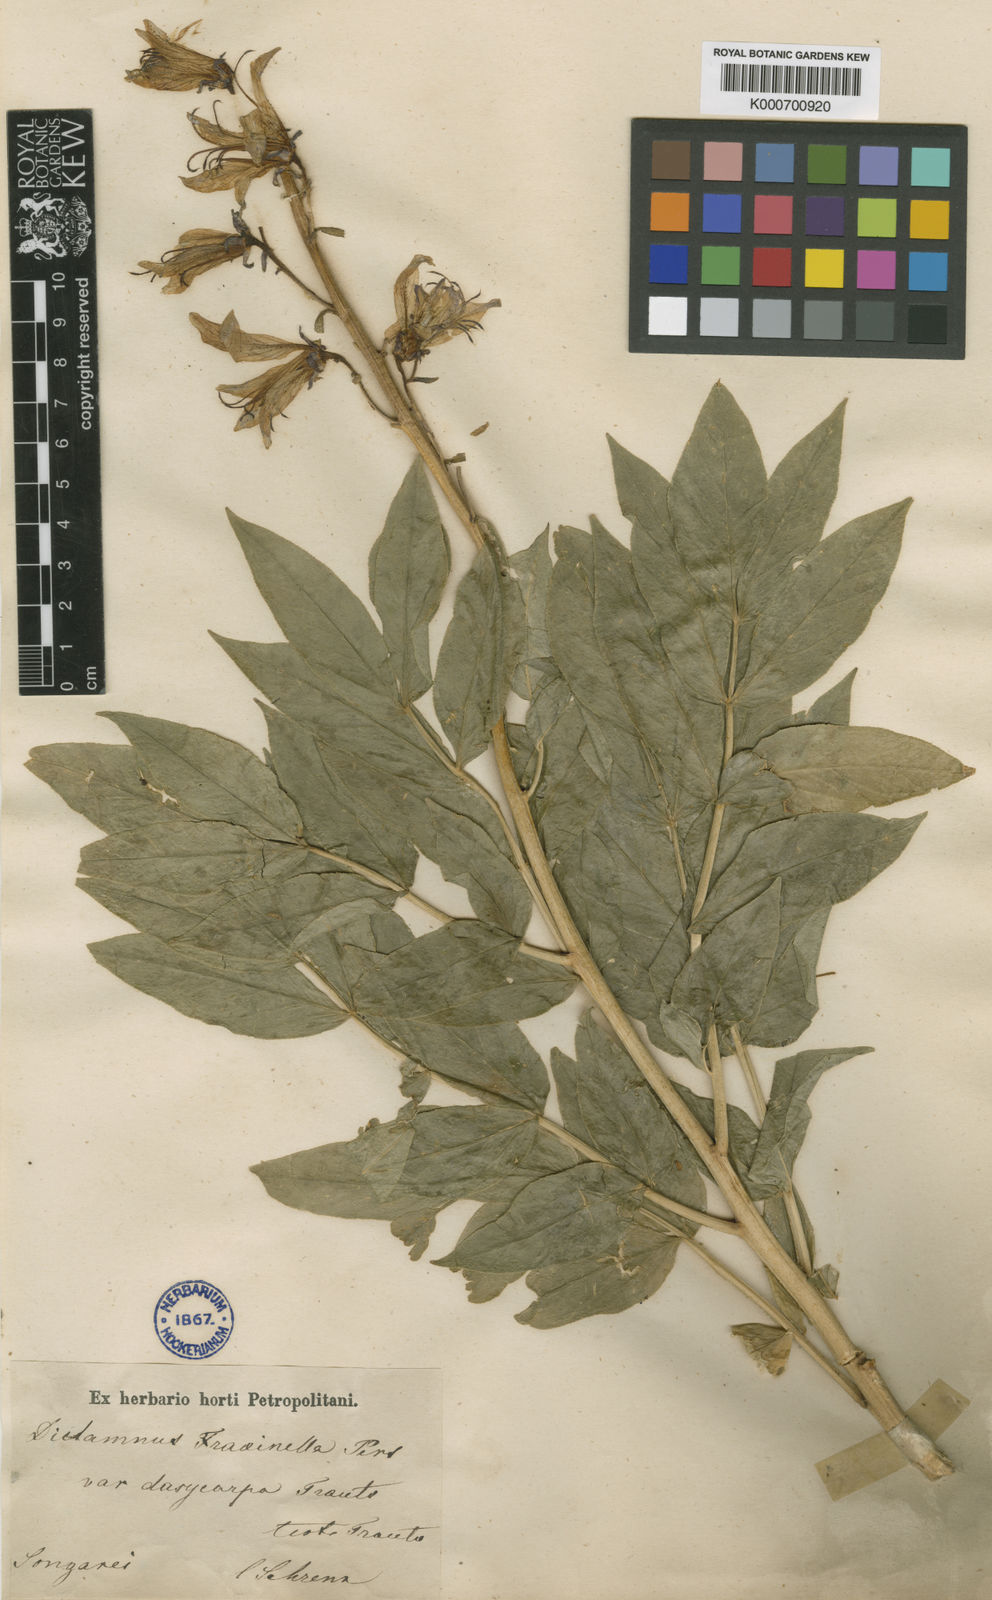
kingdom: Plantae
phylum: Tracheophyta
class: Magnoliopsida
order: Sapindales
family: Rutaceae
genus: Dictamnus
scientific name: Dictamnus dasycarpus
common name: Dense-fruit dittany
